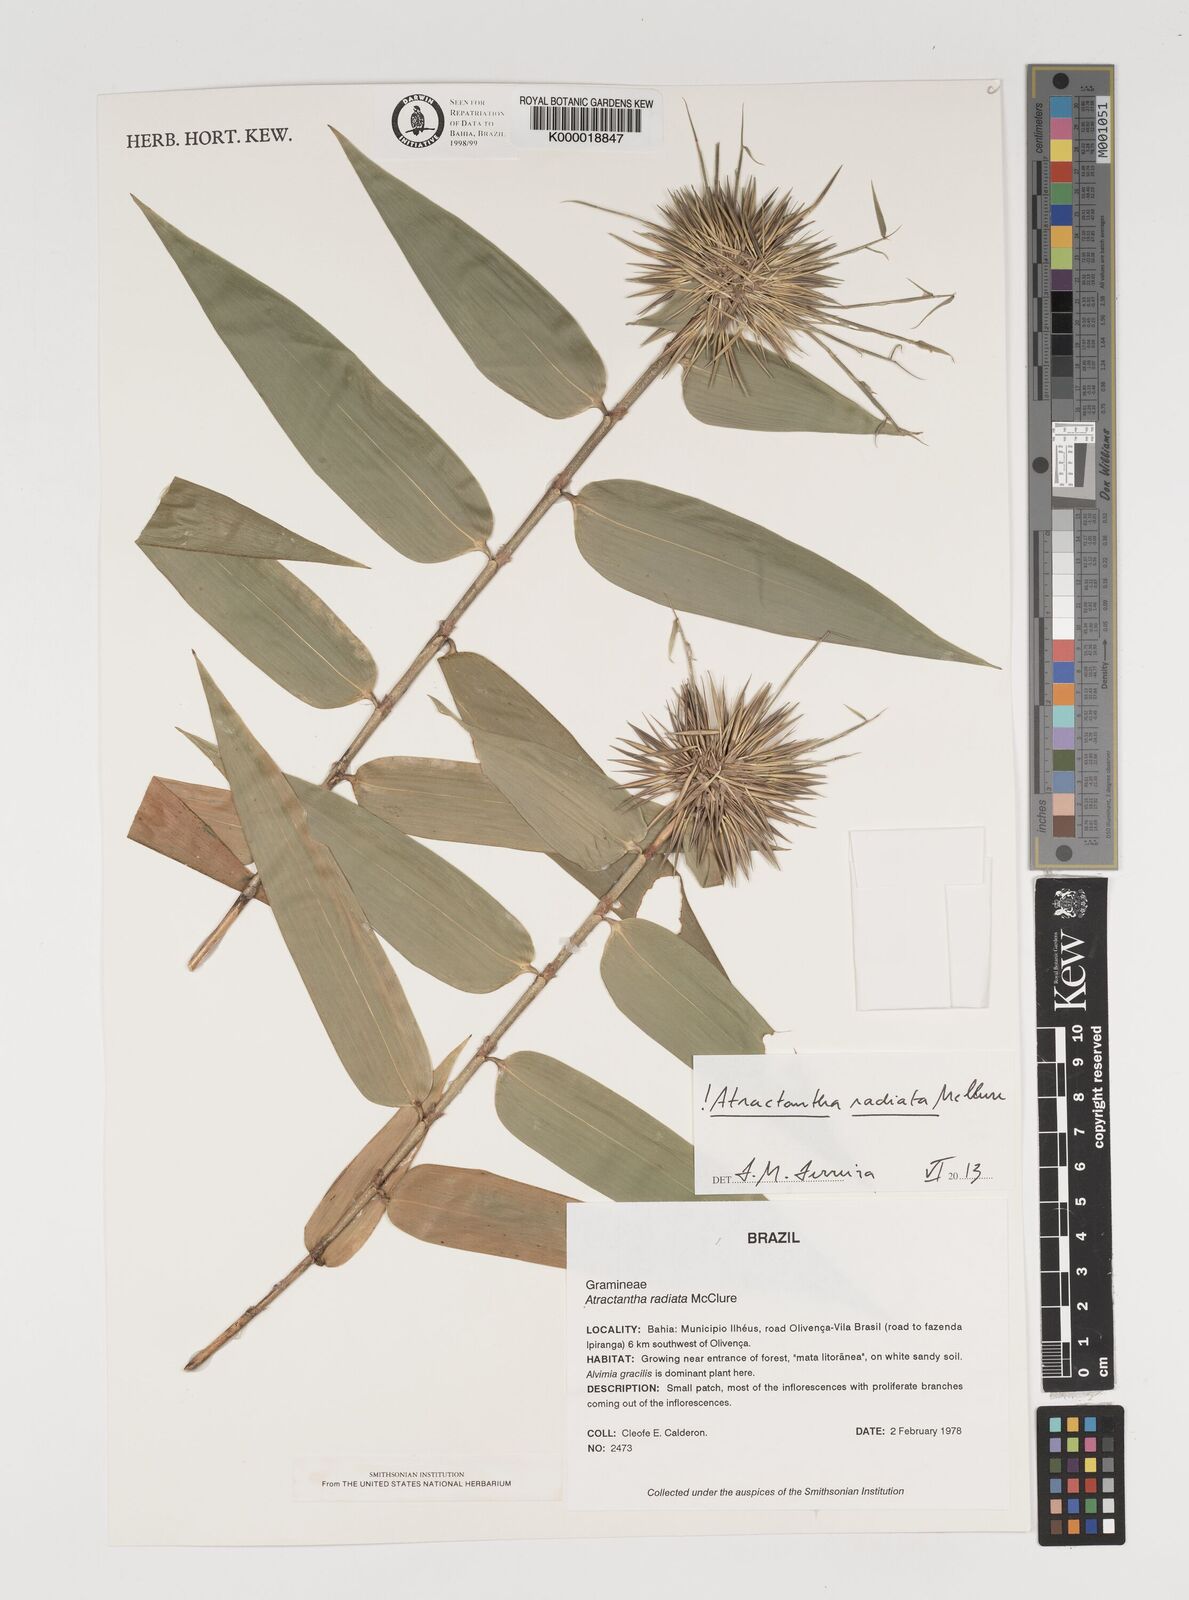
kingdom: Plantae
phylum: Tracheophyta
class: Liliopsida
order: Poales
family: Poaceae
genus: Atractantha
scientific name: Atractantha radiata
